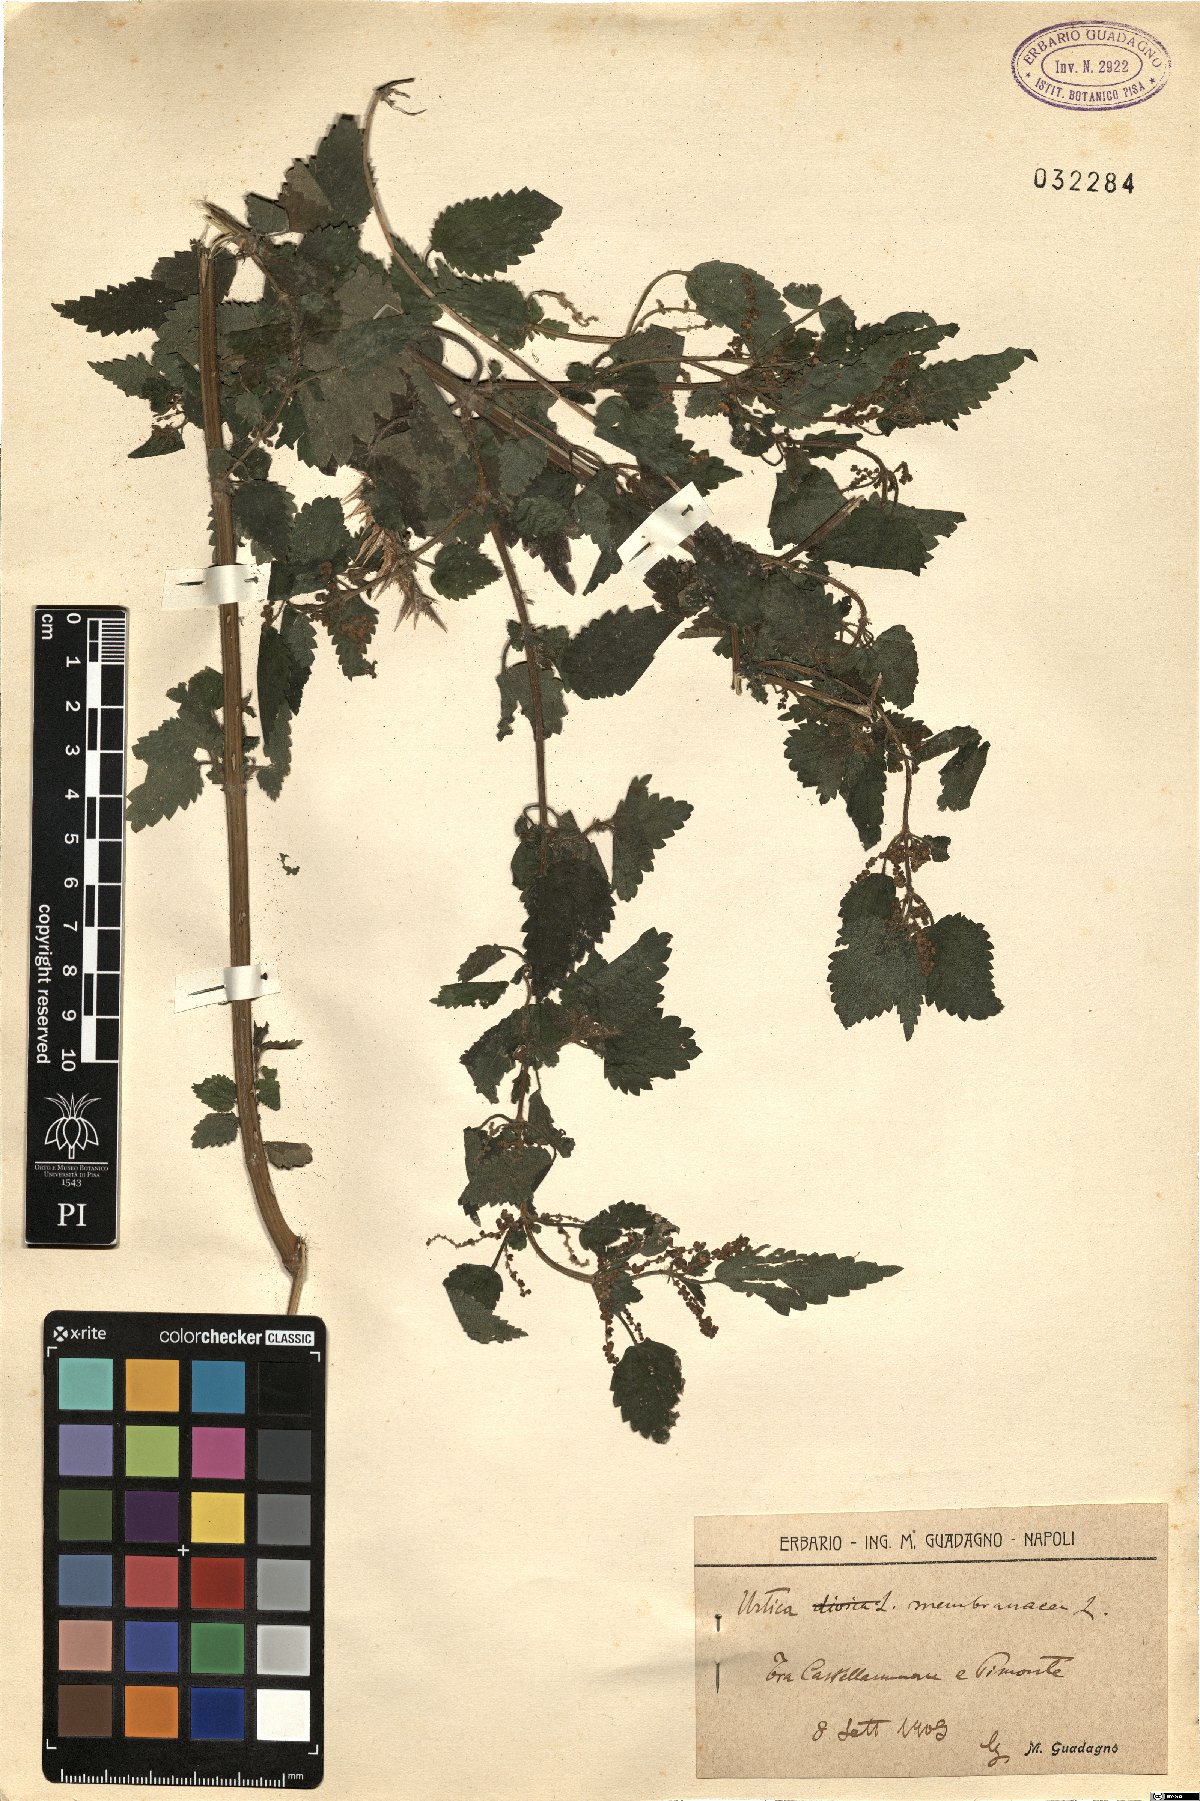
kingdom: Plantae
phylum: Tracheophyta
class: Magnoliopsida
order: Rosales
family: Urticaceae
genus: Urtica
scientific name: Urtica membranacea
